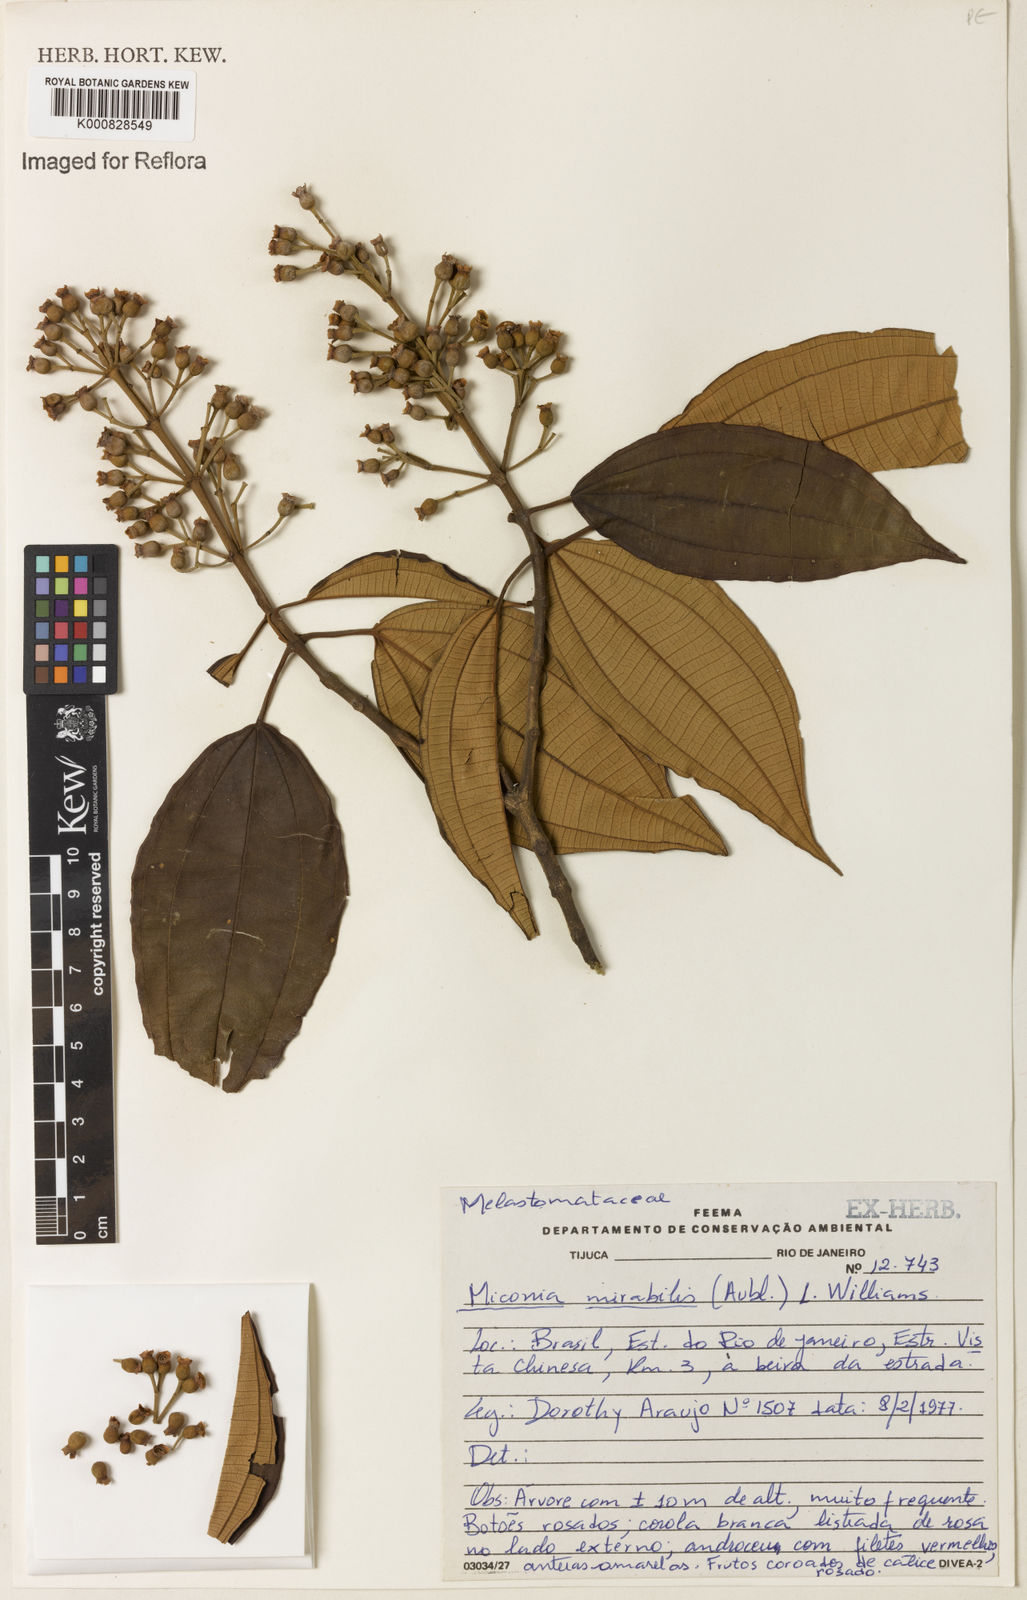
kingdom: Plantae
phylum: Tracheophyta
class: Magnoliopsida
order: Myrtales
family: Melastomataceae
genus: Miconia
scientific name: Miconia mirabilis
